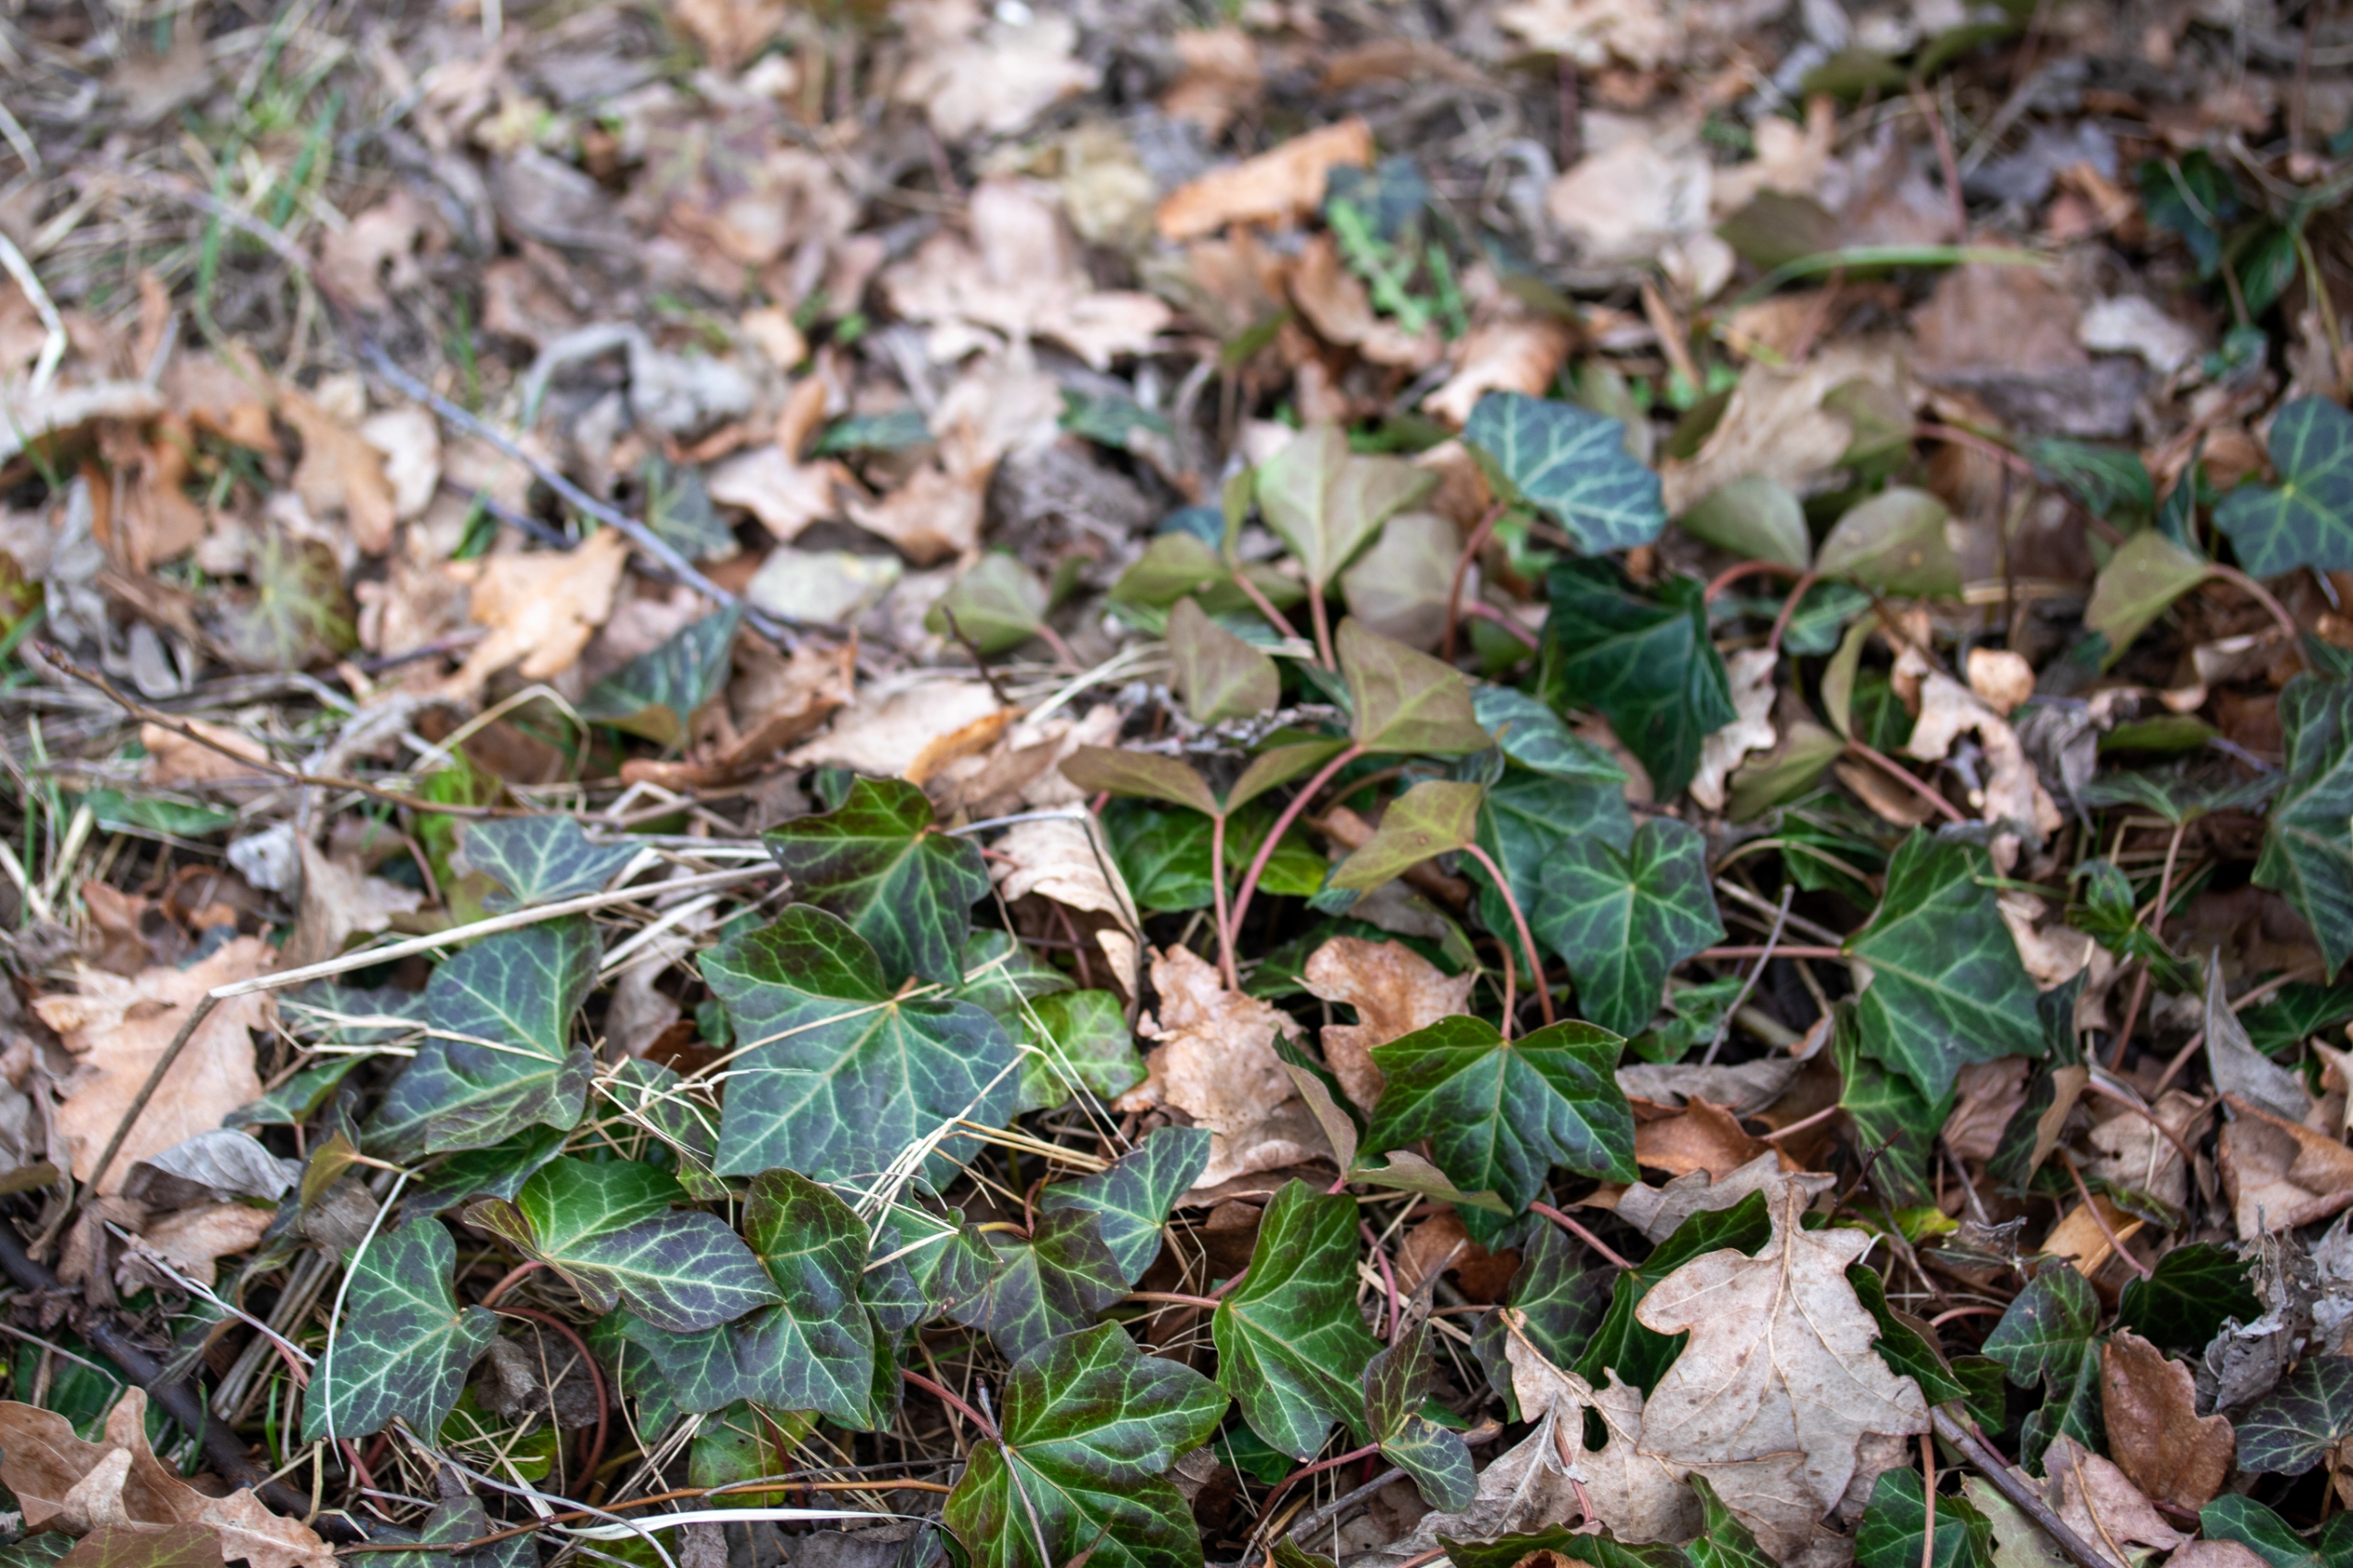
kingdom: Plantae
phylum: Tracheophyta
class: Magnoliopsida
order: Apiales
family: Araliaceae
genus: Hedera
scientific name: Hedera helix
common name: Vedbend
